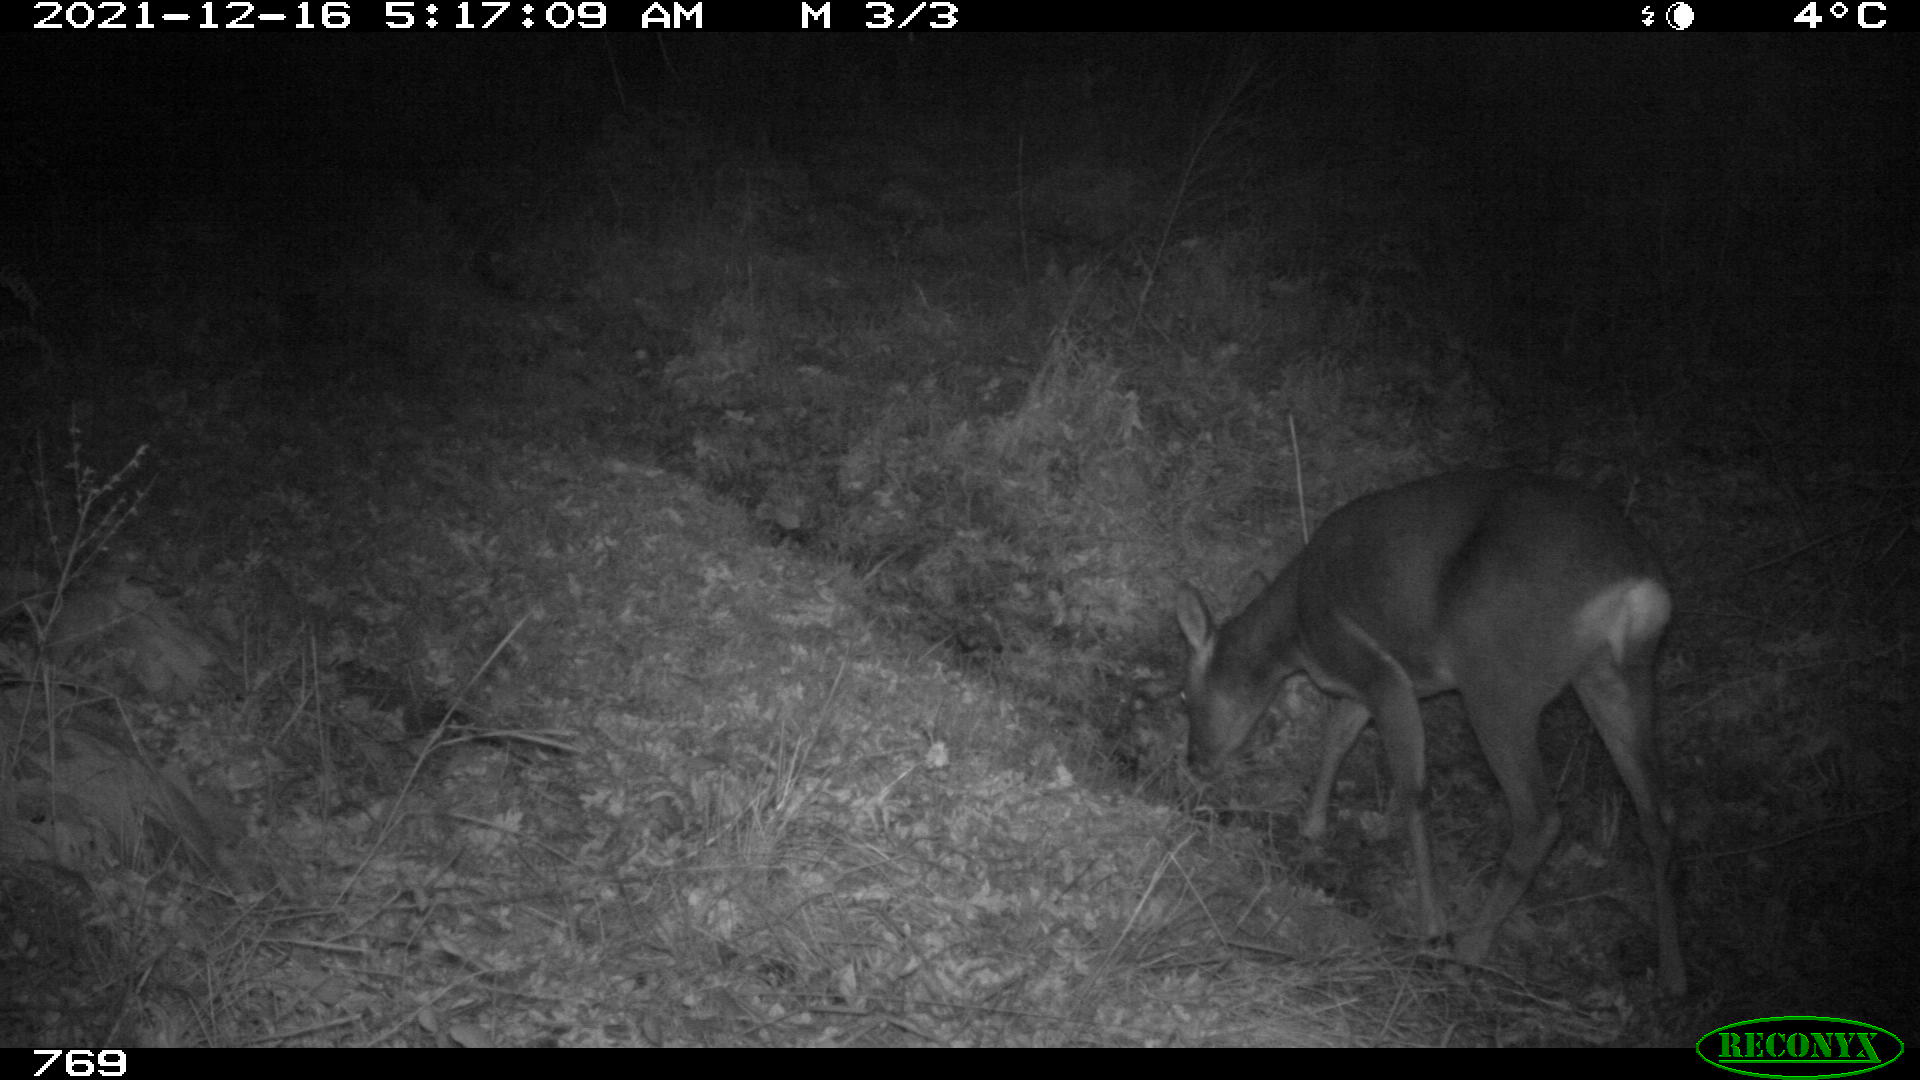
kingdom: Animalia
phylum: Chordata
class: Mammalia
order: Artiodactyla
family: Cervidae
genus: Capreolus
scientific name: Capreolus capreolus
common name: Western roe deer
